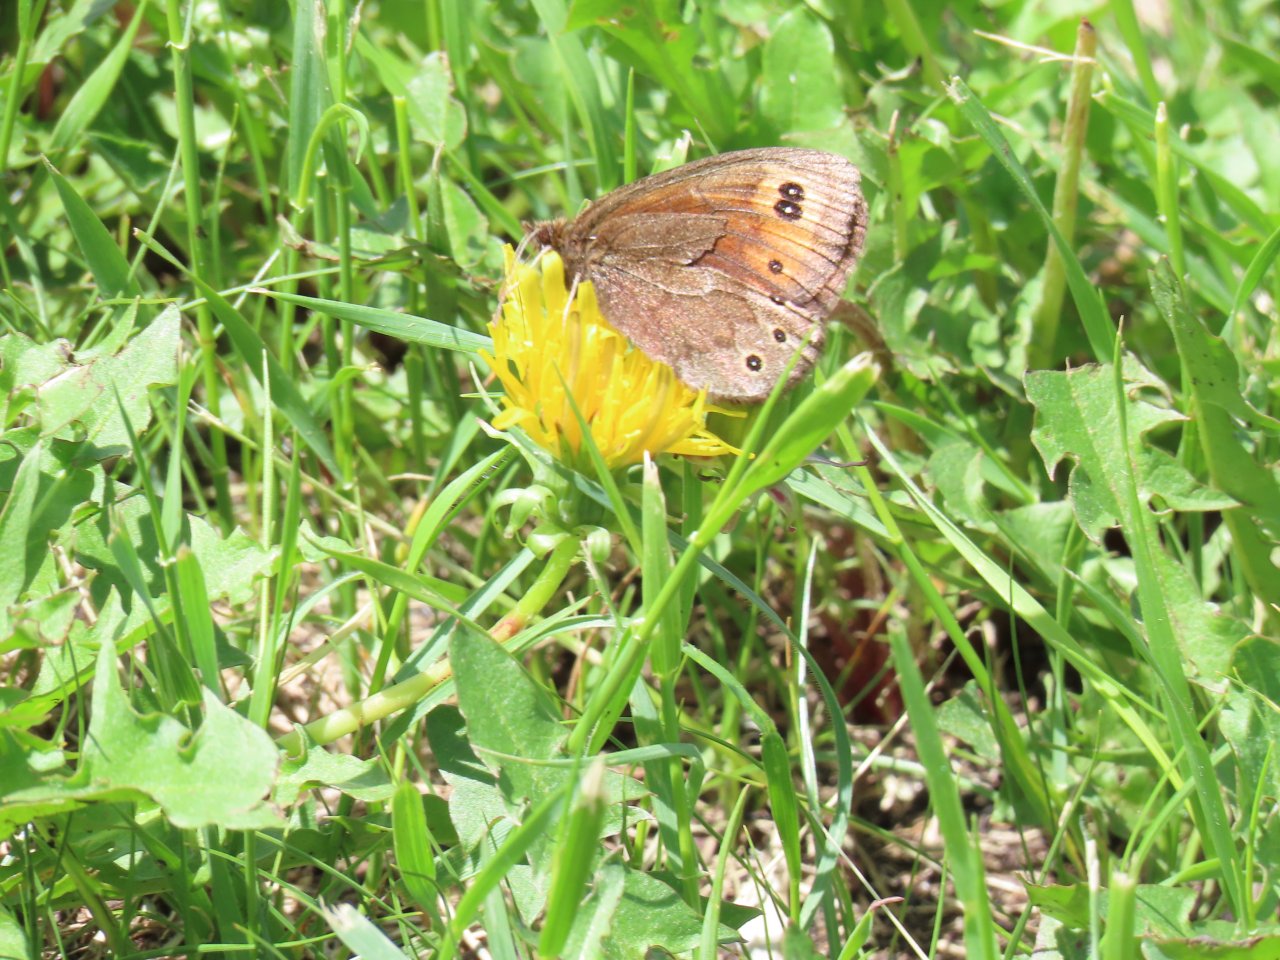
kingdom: Animalia
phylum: Arthropoda
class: Insecta
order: Lepidoptera
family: Nymphalidae
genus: Erebia
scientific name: Erebia epipsodea
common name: Common Alpine
